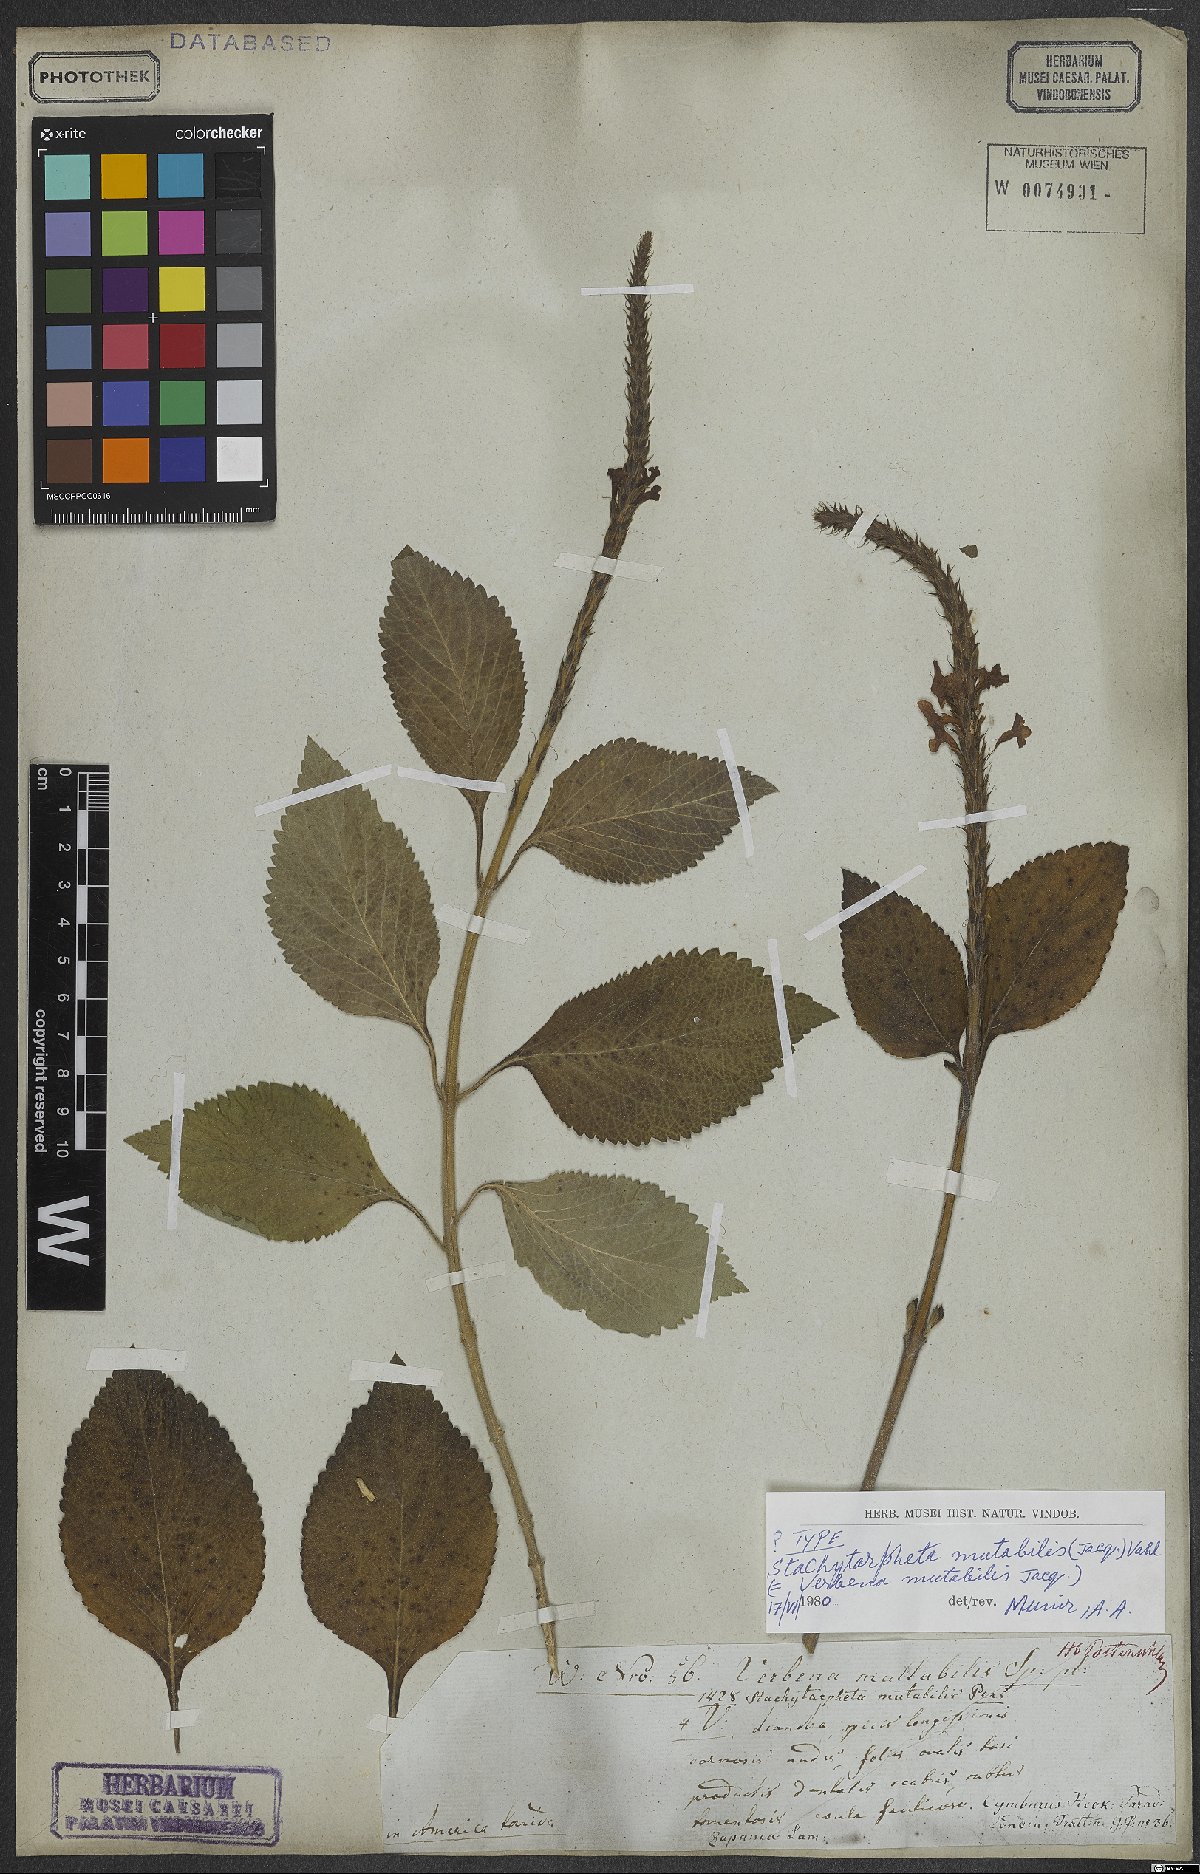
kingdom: Plantae
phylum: Tracheophyta
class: Magnoliopsida
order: Lamiales
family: Verbenaceae
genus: Stachytarpheta
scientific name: Stachytarpheta mutabilis
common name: Changeable velvetberry
